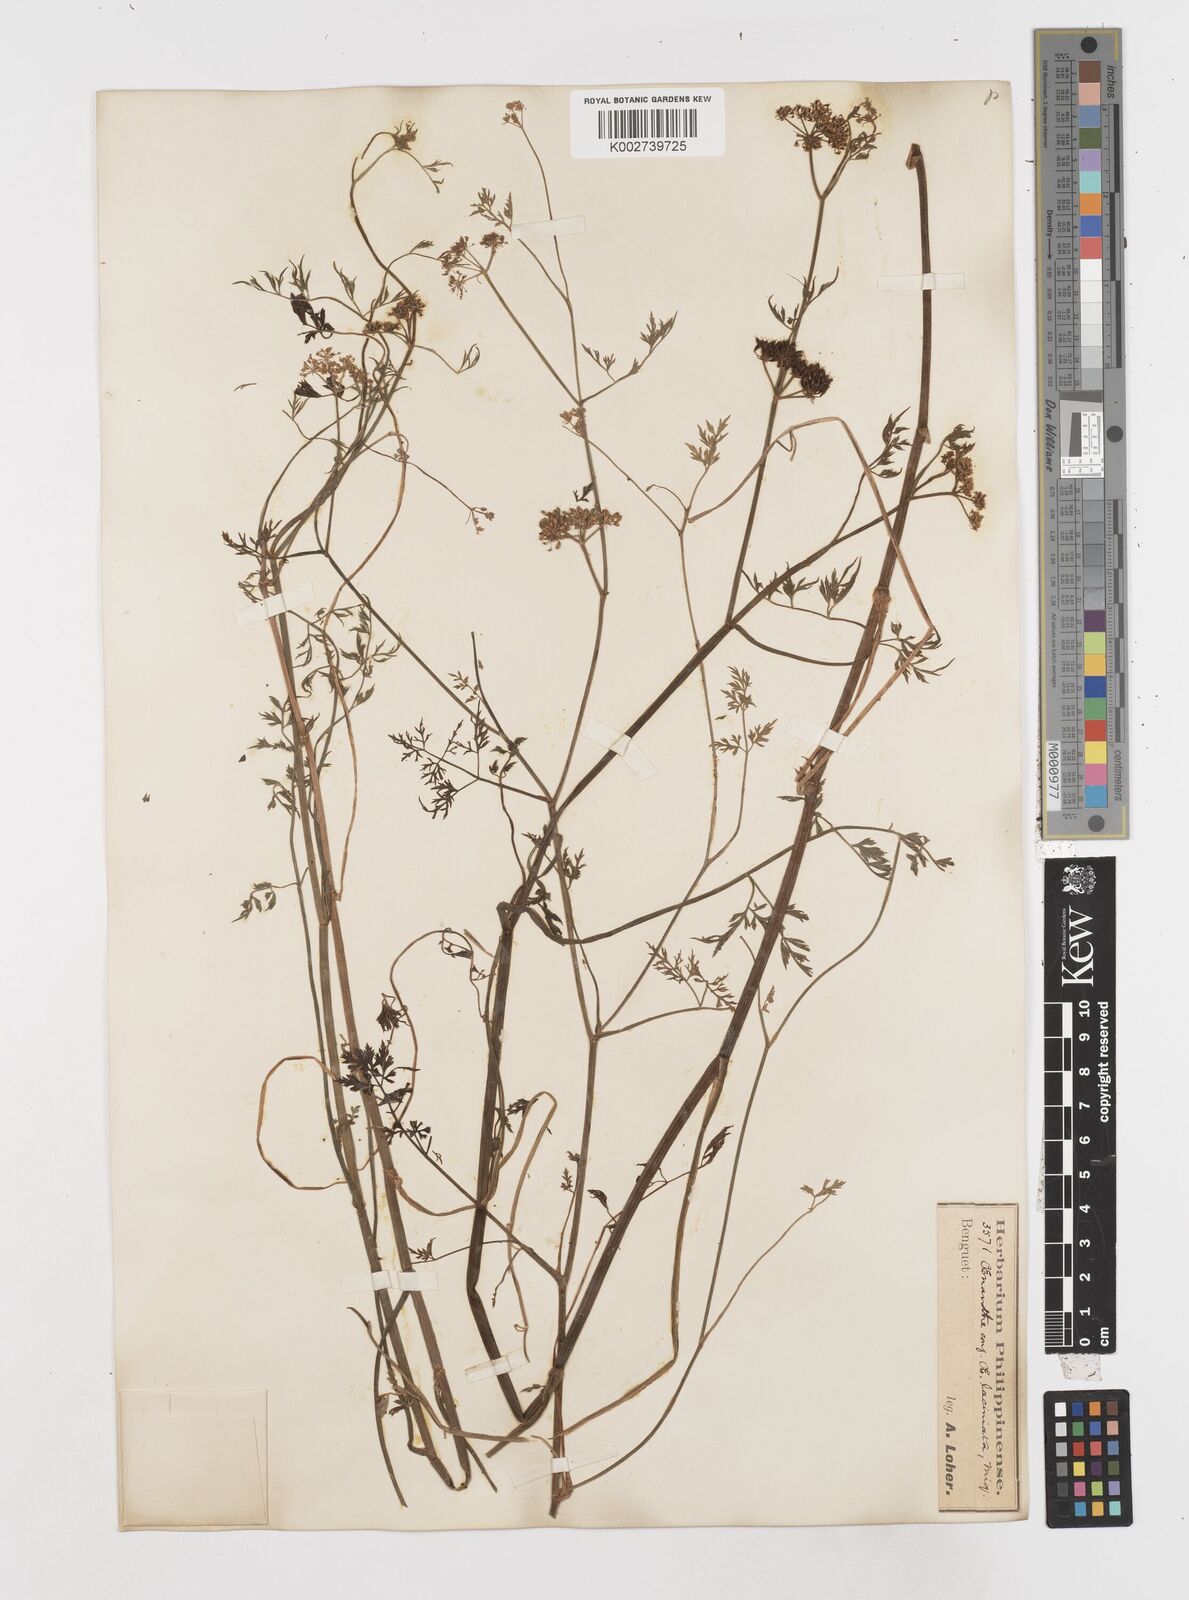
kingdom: Plantae
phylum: Tracheophyta
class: Magnoliopsida
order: Apiales
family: Apiaceae
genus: Oenanthe
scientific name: Oenanthe javanica
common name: Java water-dropwort
